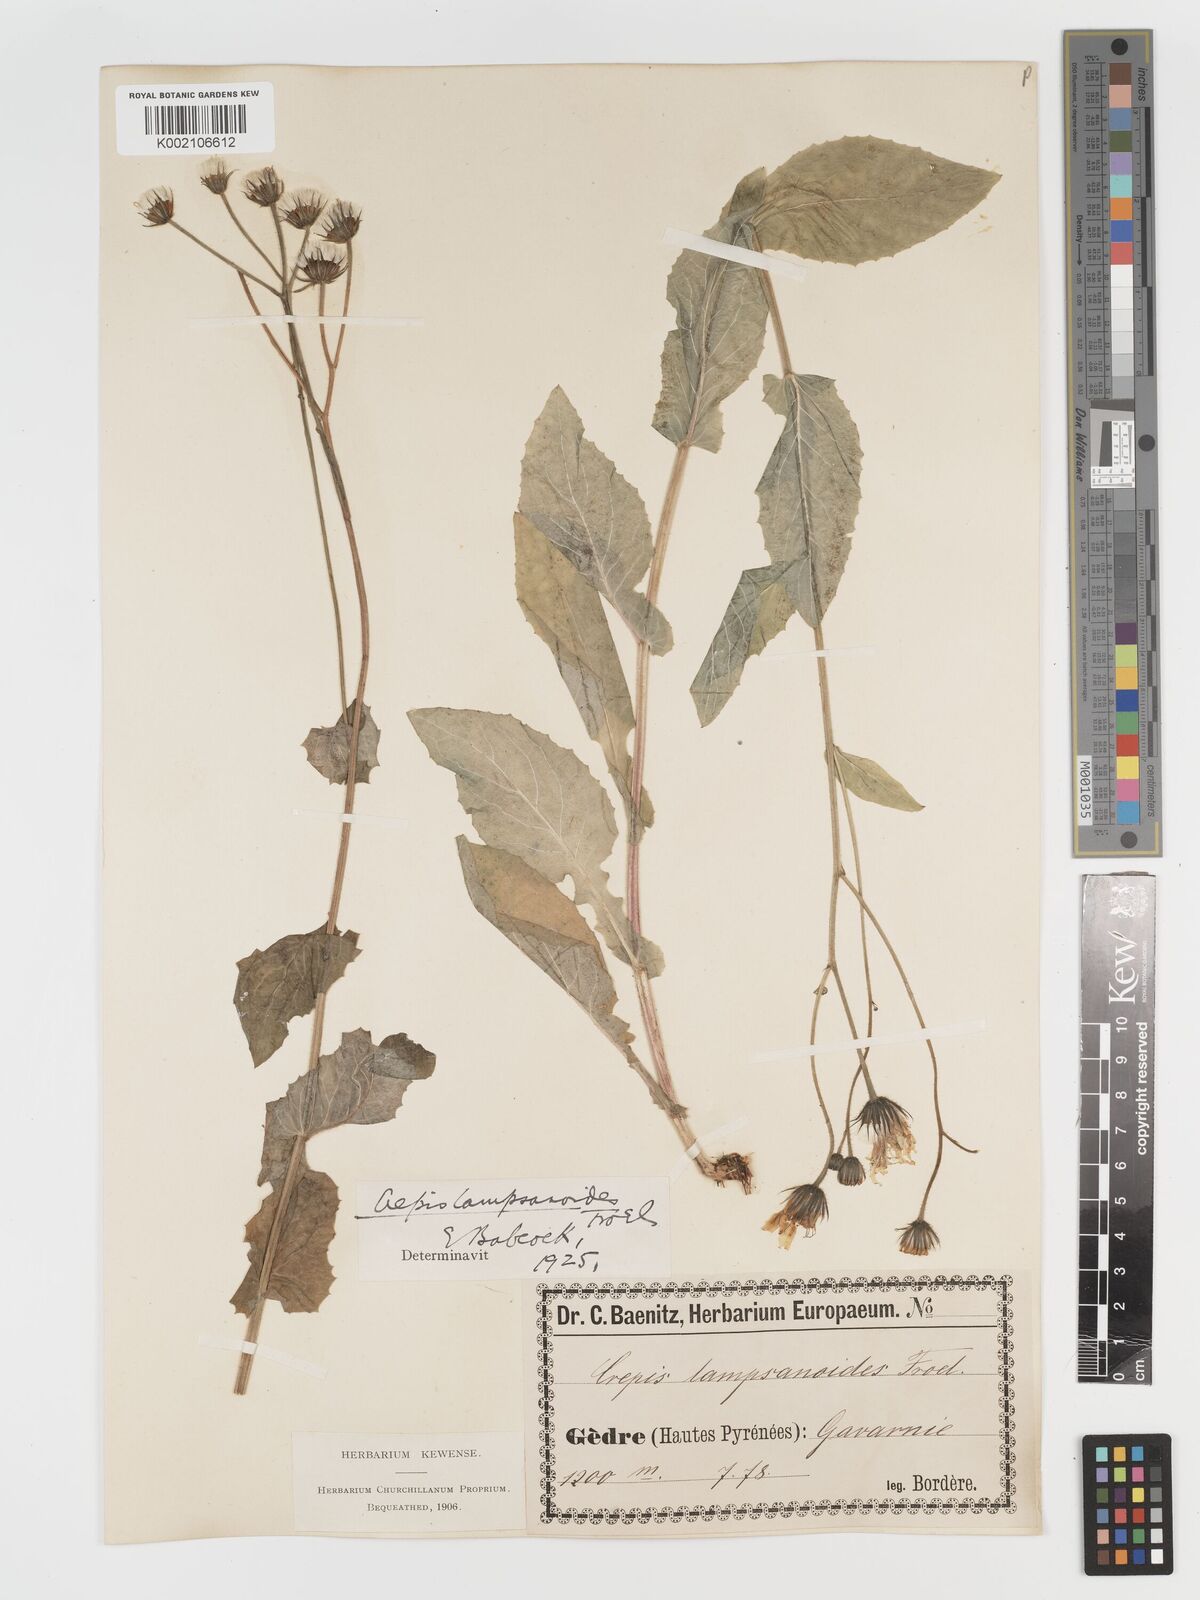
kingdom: Plantae
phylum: Tracheophyta
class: Magnoliopsida
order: Asterales
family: Asteraceae
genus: Crepis
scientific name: Crepis lampsanoides
